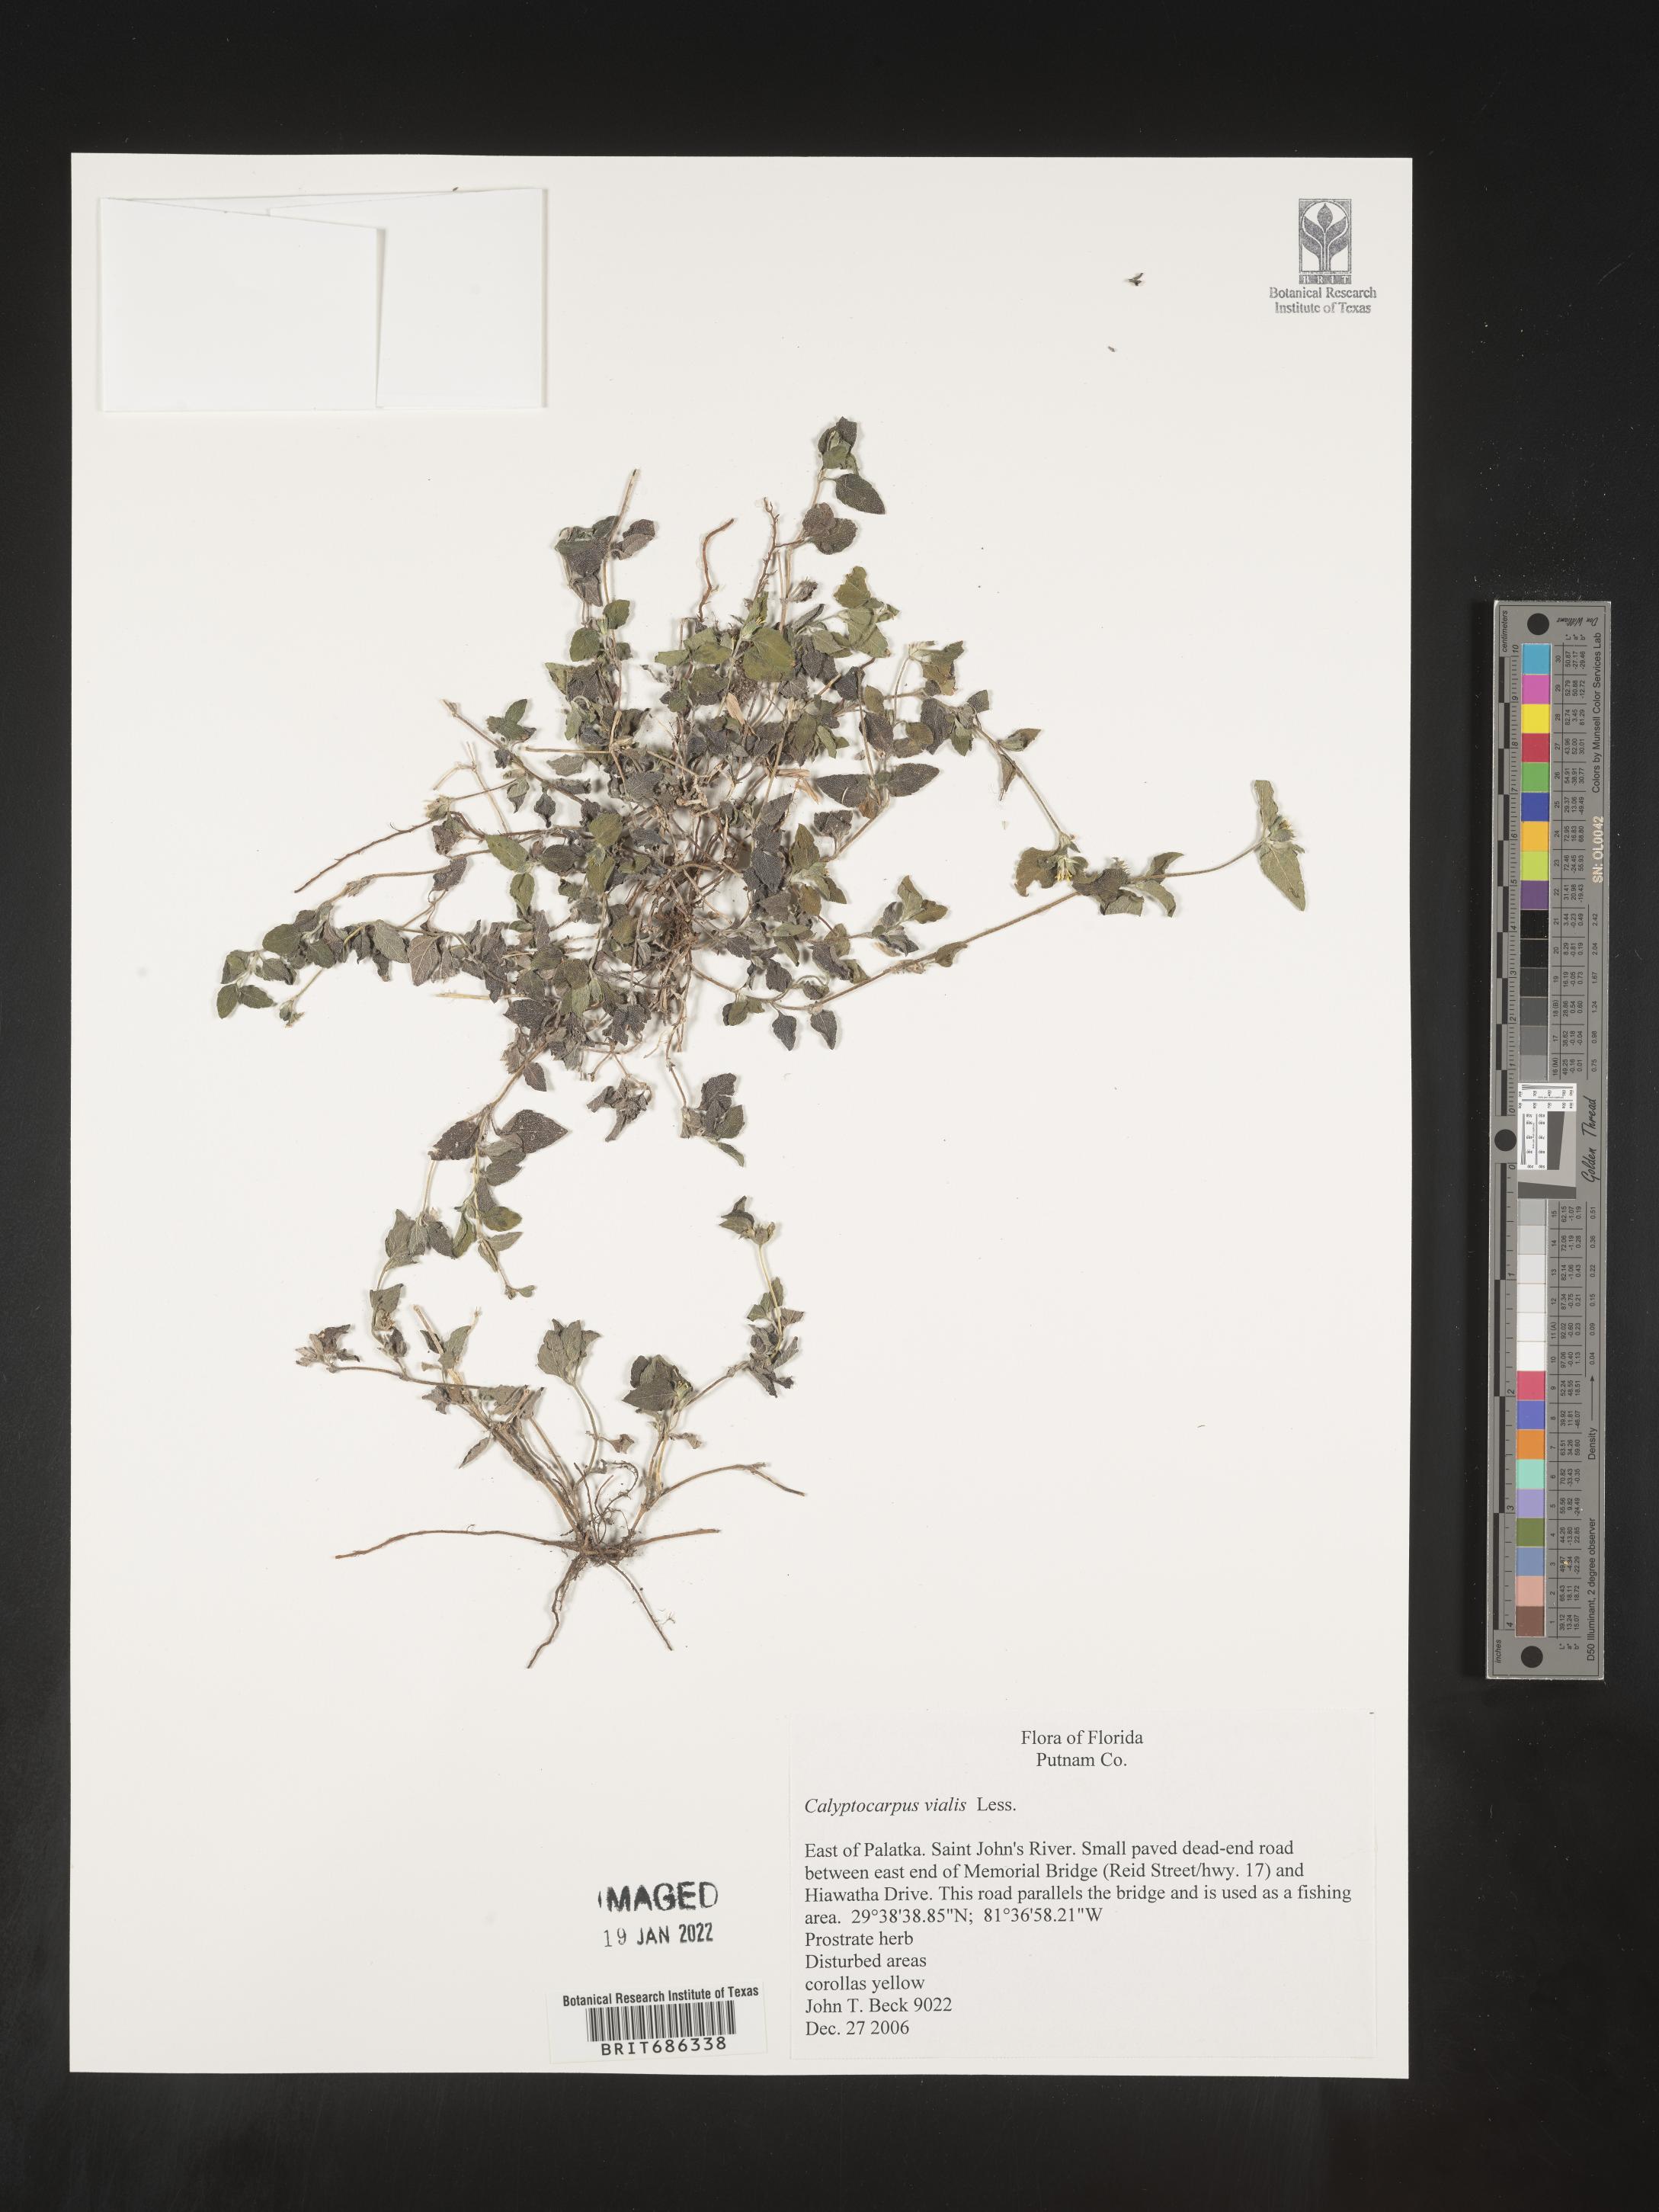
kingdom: Plantae
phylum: Tracheophyta
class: Magnoliopsida
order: Asterales
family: Asteraceae
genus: Calyptocarpus
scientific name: Calyptocarpus
